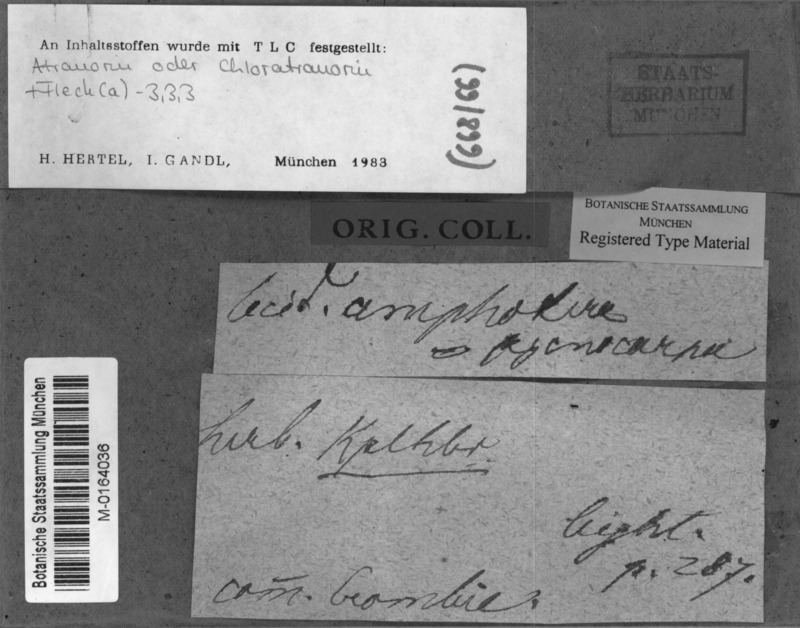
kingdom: Fungi
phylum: Ascomycota
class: Lecanoromycetes
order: Lecanorales
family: Lecanoraceae
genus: Miriquidica
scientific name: Miriquidica pycnocarpa
